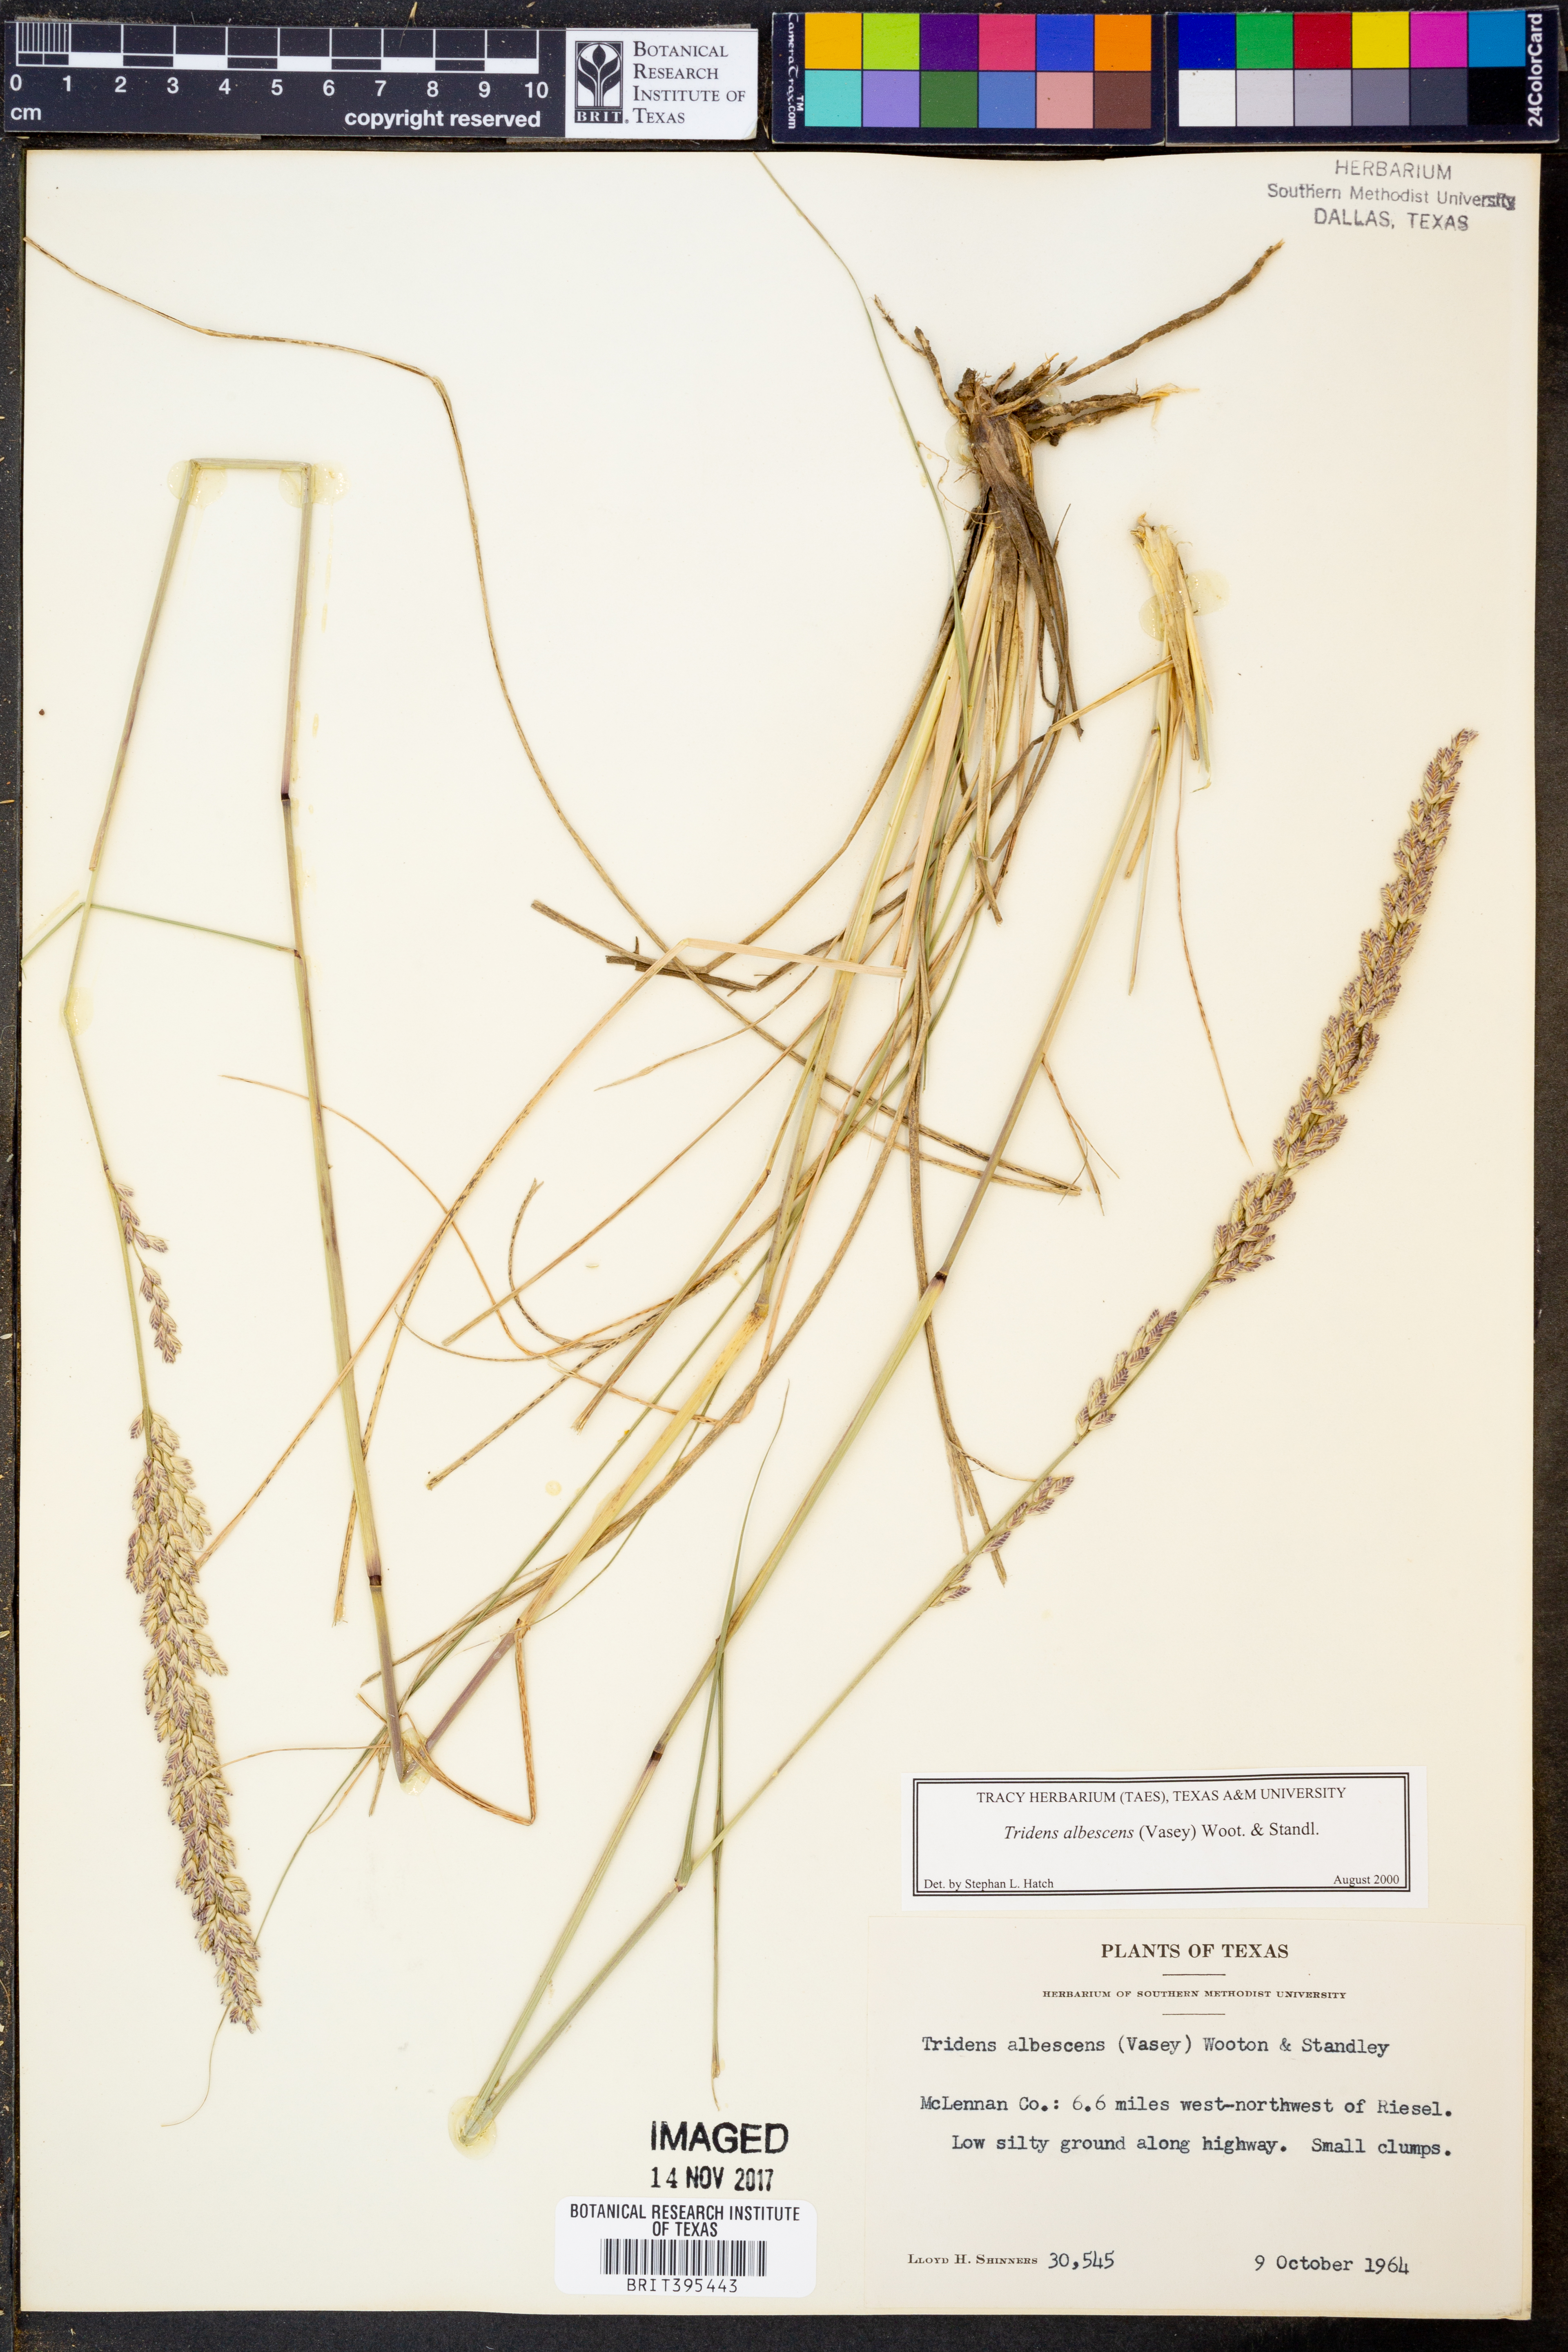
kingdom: Plantae
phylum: Tracheophyta
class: Liliopsida
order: Poales
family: Poaceae
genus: Tridens
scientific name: Tridens albescens
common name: White tridens
